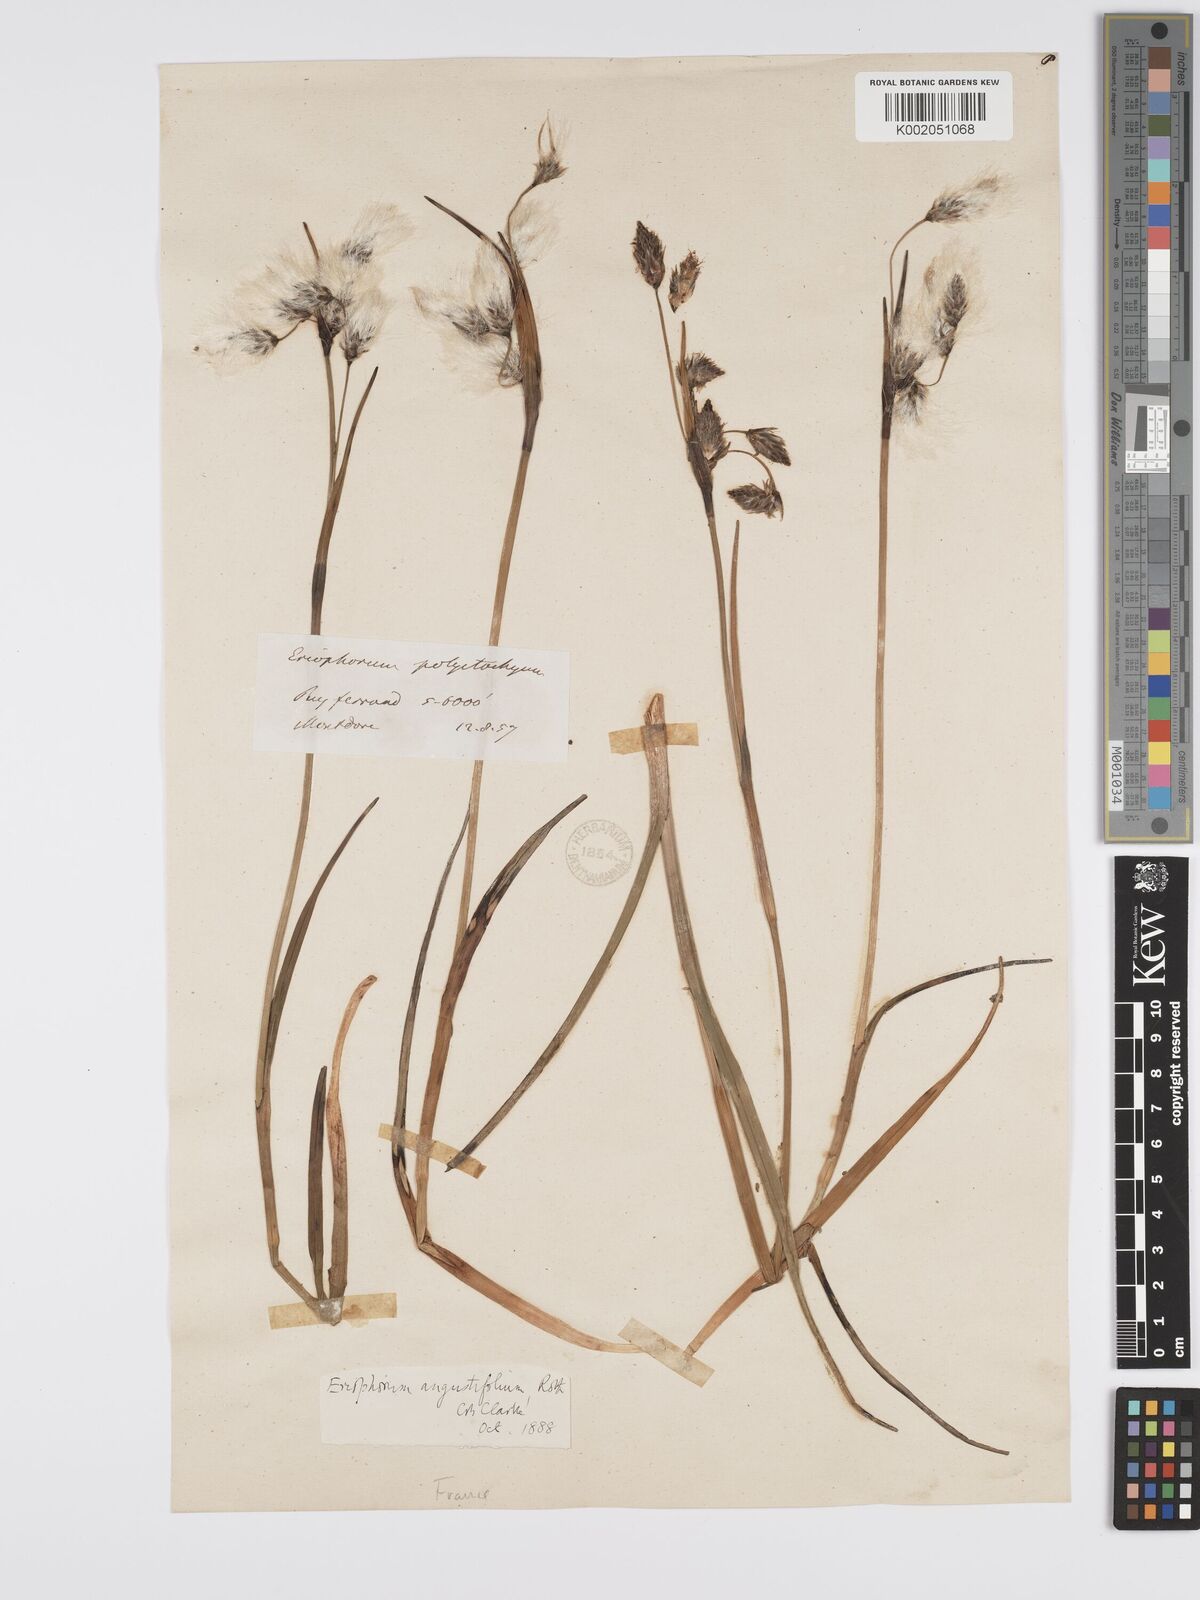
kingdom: Plantae
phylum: Tracheophyta
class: Liliopsida
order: Poales
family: Cyperaceae
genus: Eriophorum
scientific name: Eriophorum angustifolium
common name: Common cottongrass
